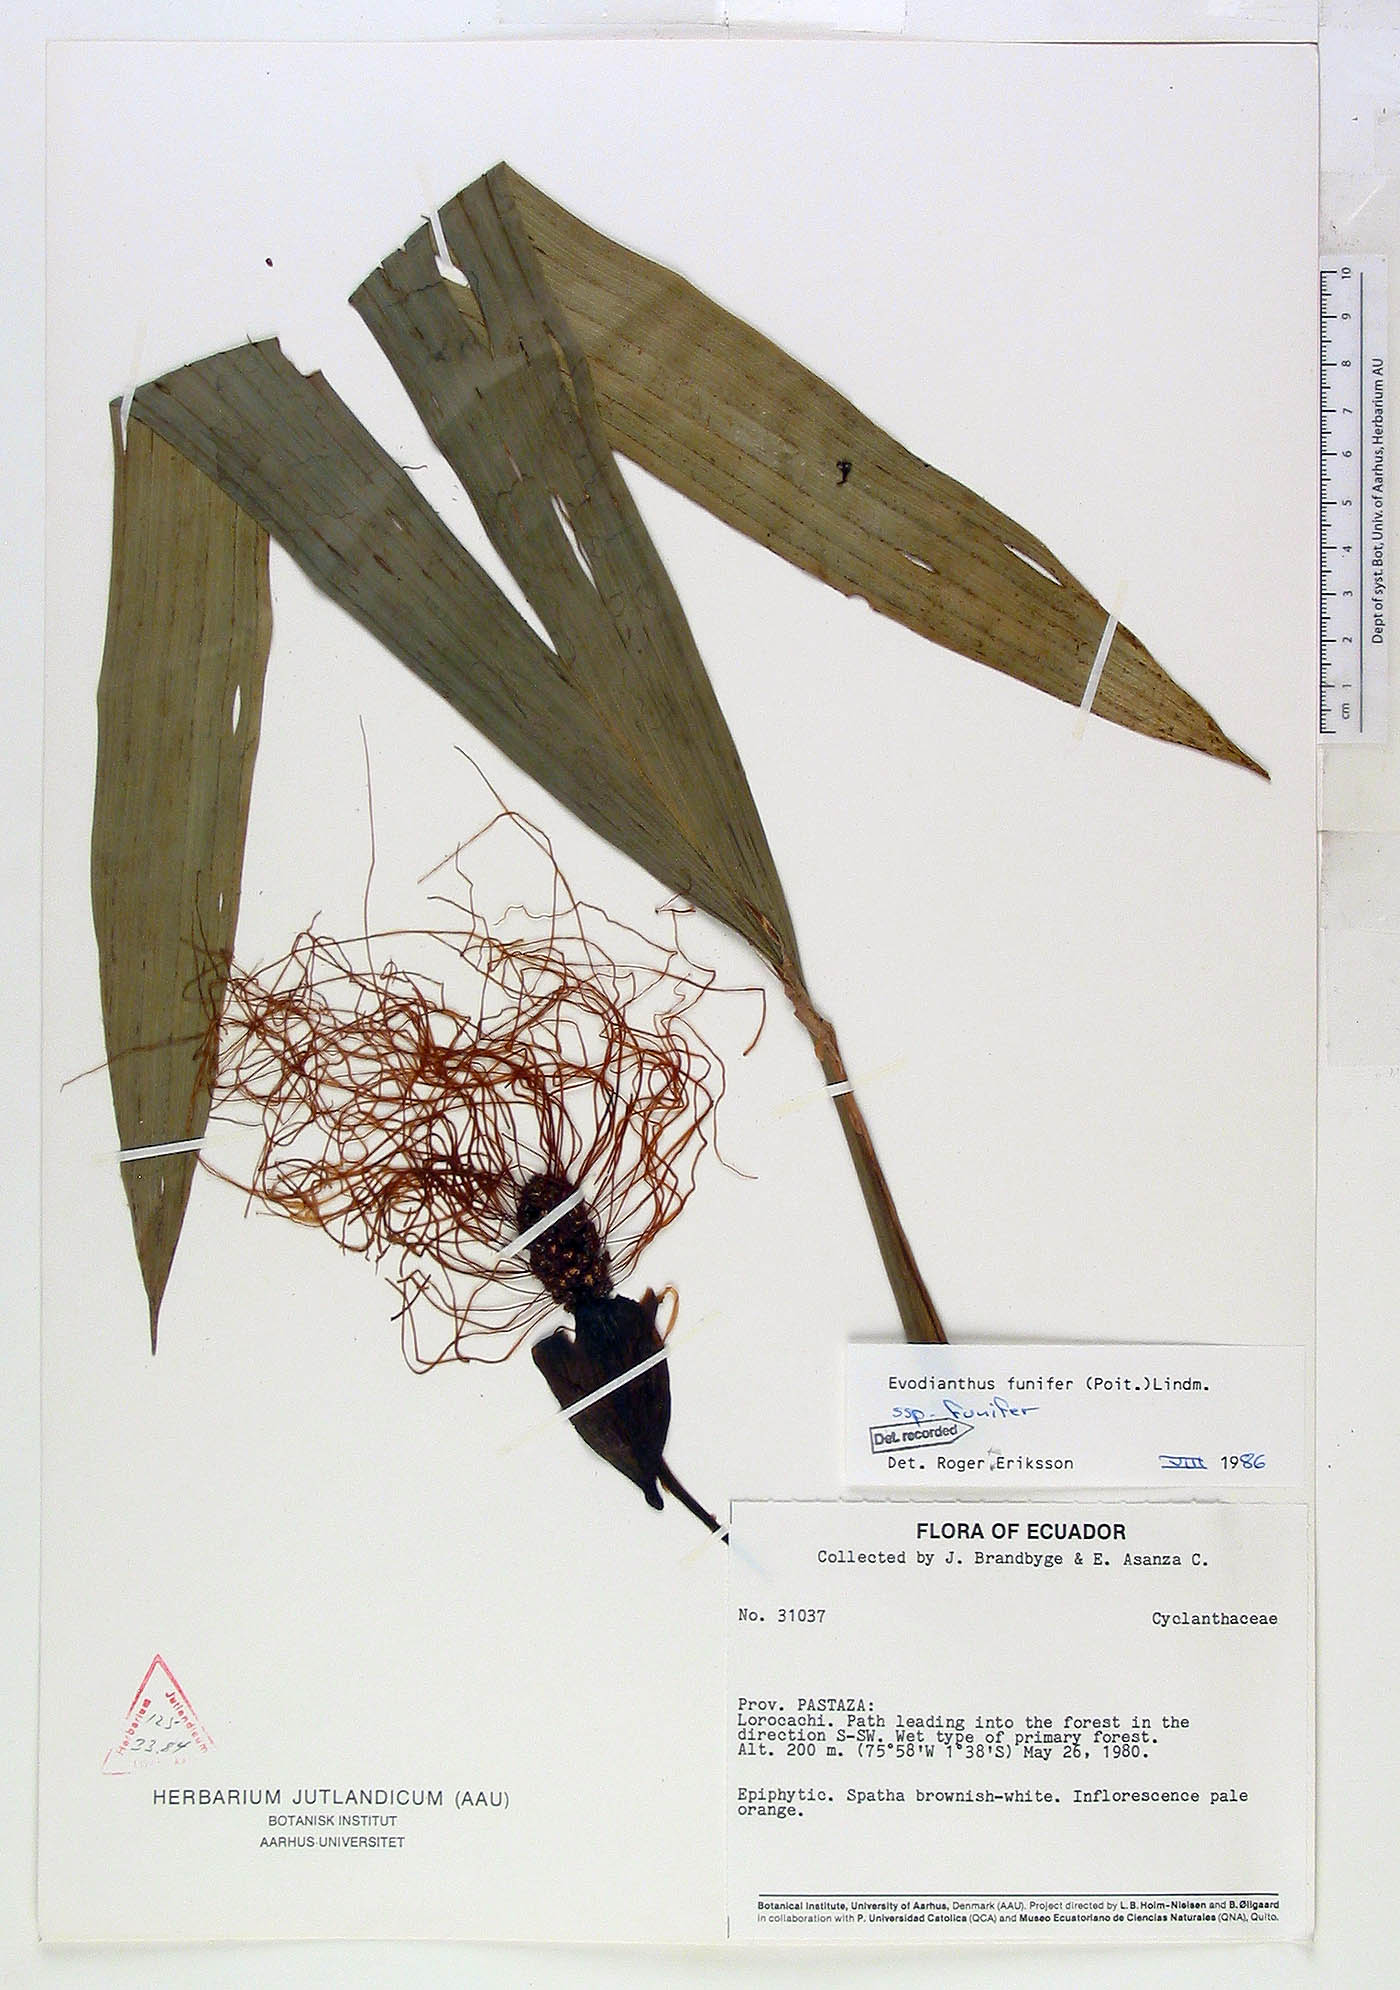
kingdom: Plantae
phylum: Tracheophyta
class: Liliopsida
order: Pandanales
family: Cyclanthaceae
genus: Evodianthus
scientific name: Evodianthus funifer
